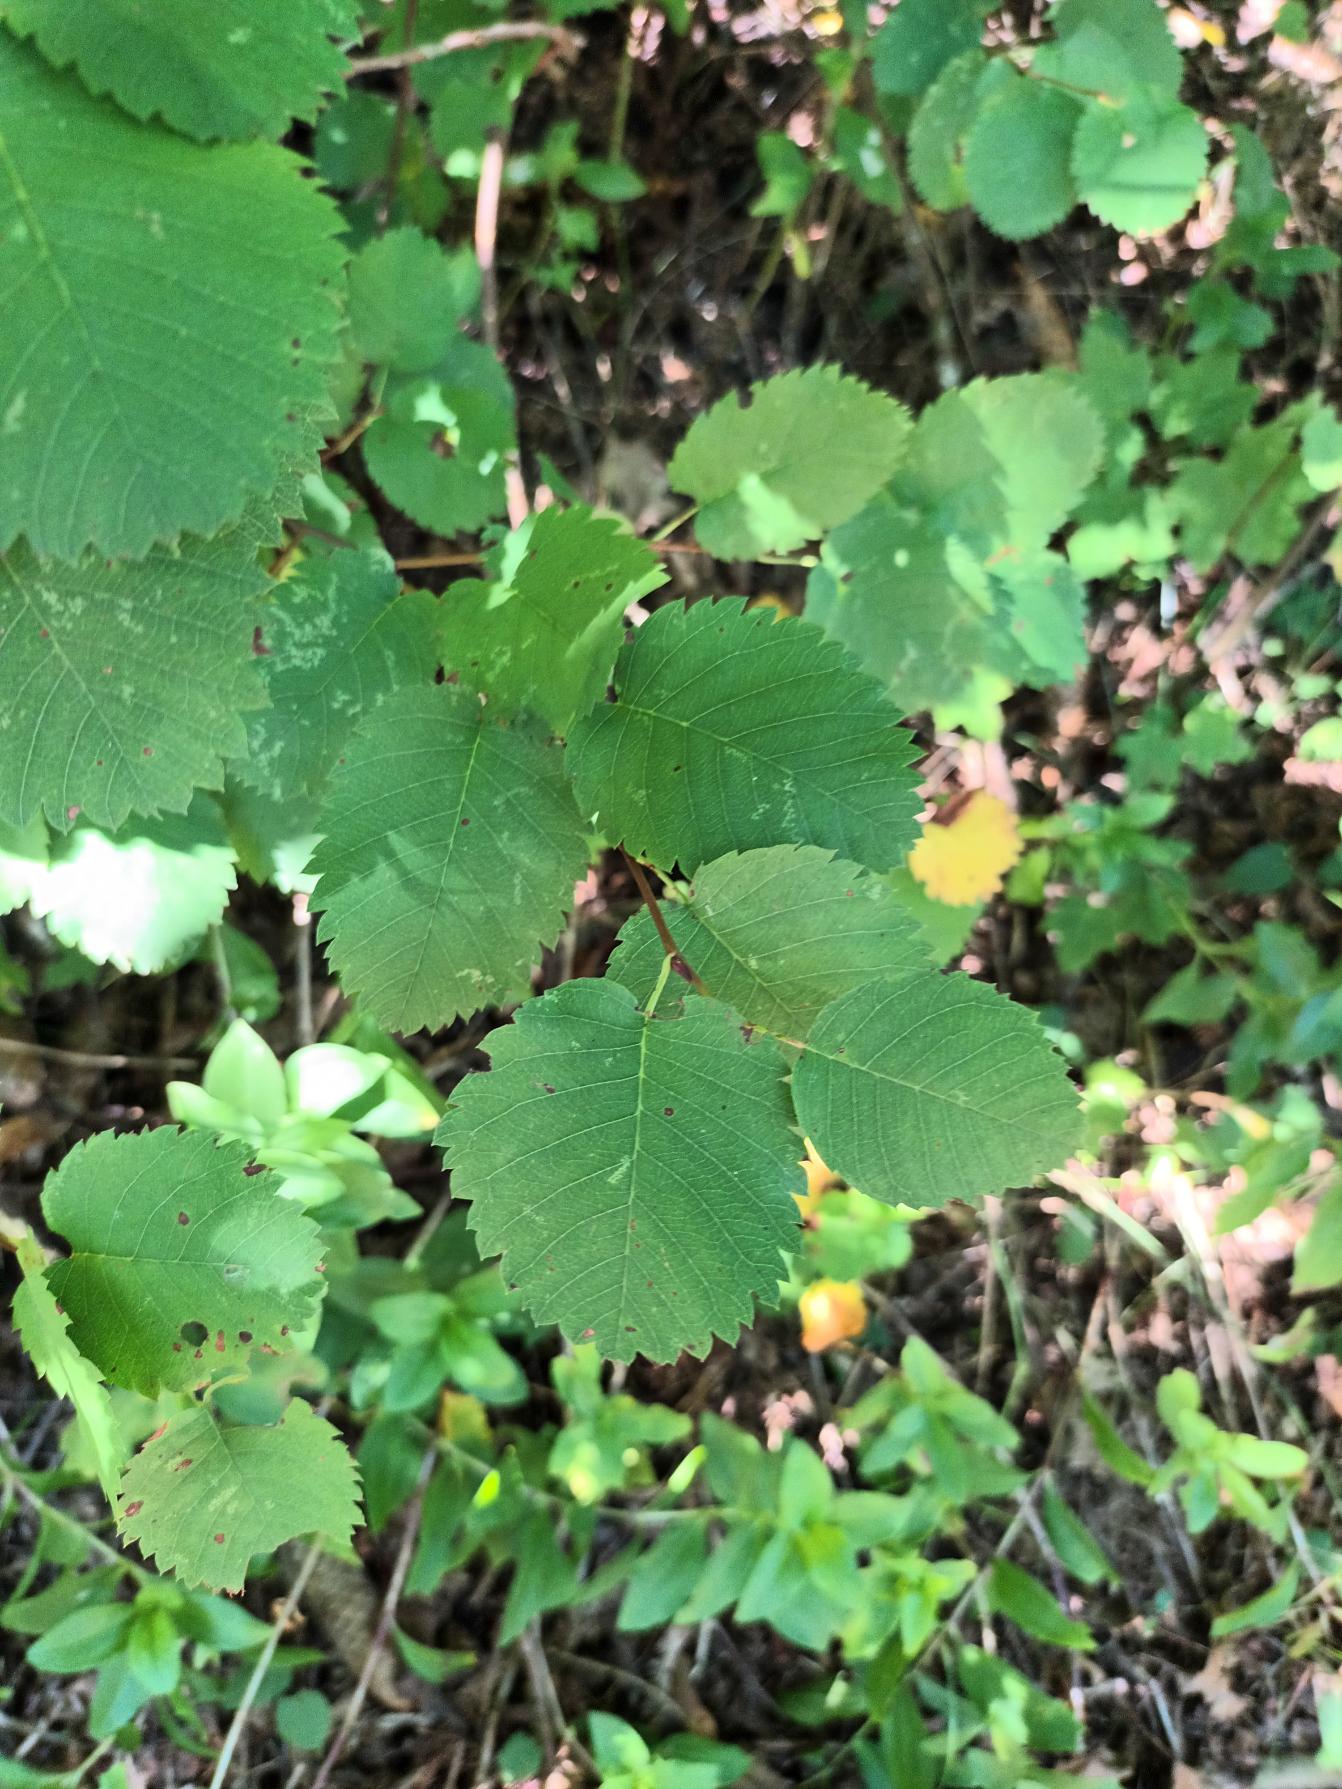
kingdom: Plantae
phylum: Tracheophyta
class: Magnoliopsida
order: Rosales
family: Rosaceae
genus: Amelanchier
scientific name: Amelanchier alnifolia
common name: Ellebladet bærmispel
